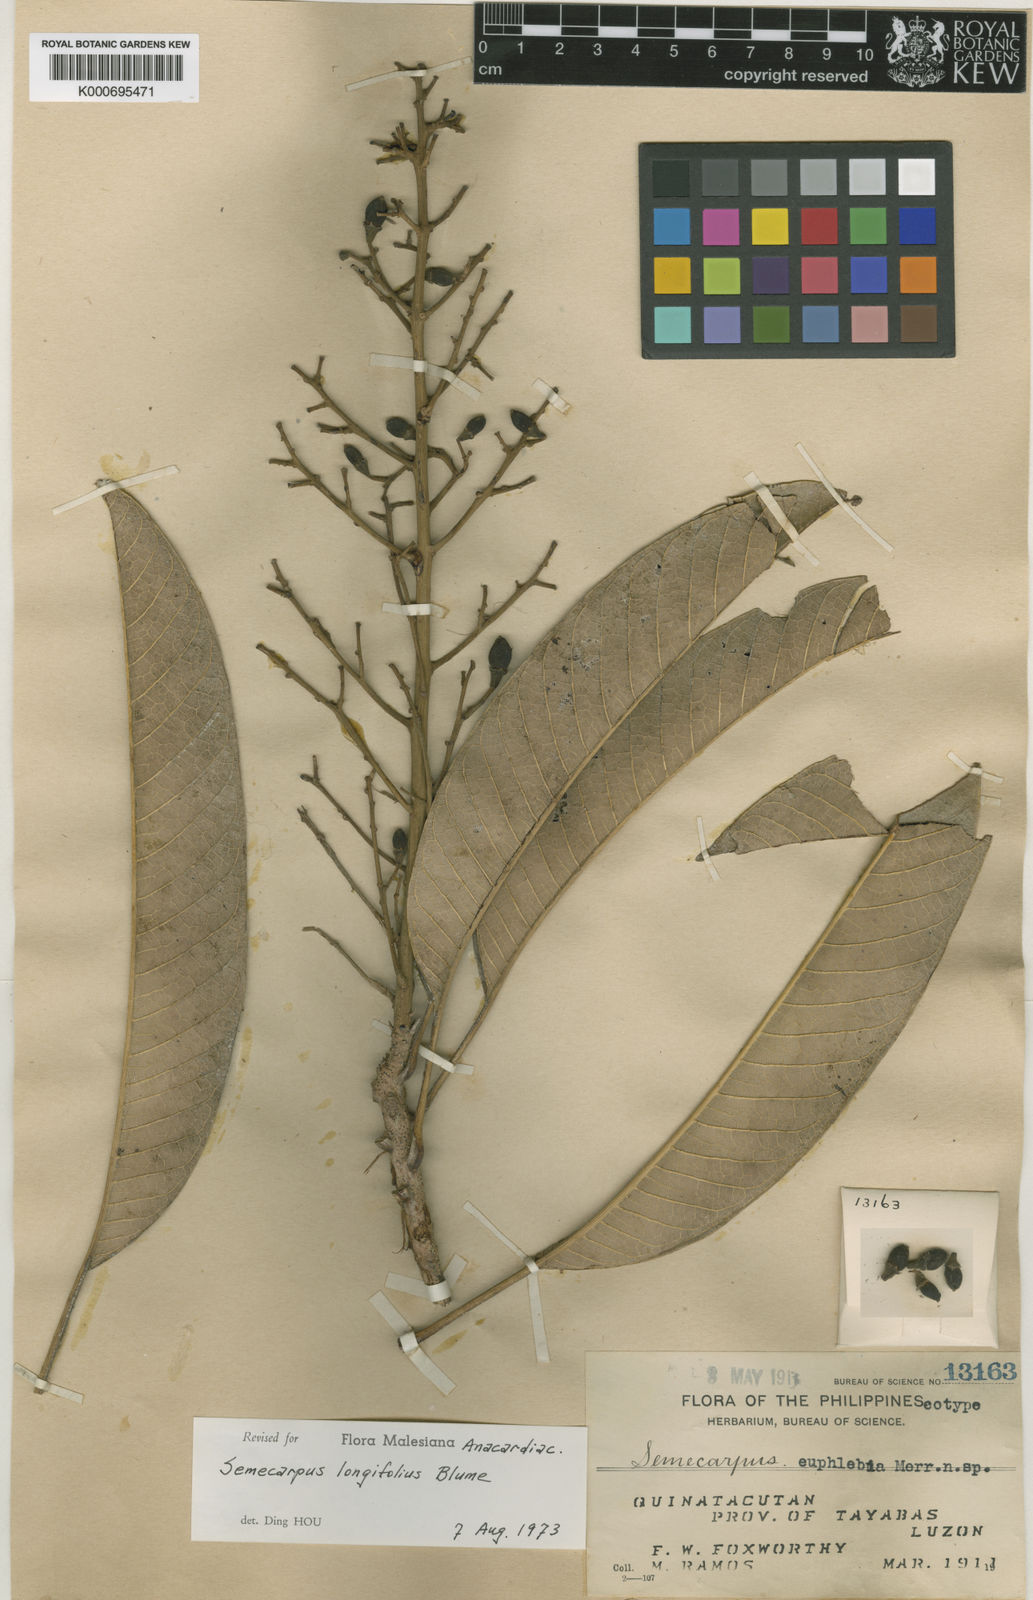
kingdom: Plantae
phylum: Tracheophyta
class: Magnoliopsida
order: Sapindales
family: Anacardiaceae
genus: Semecarpus
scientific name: Semecarpus longifolius
